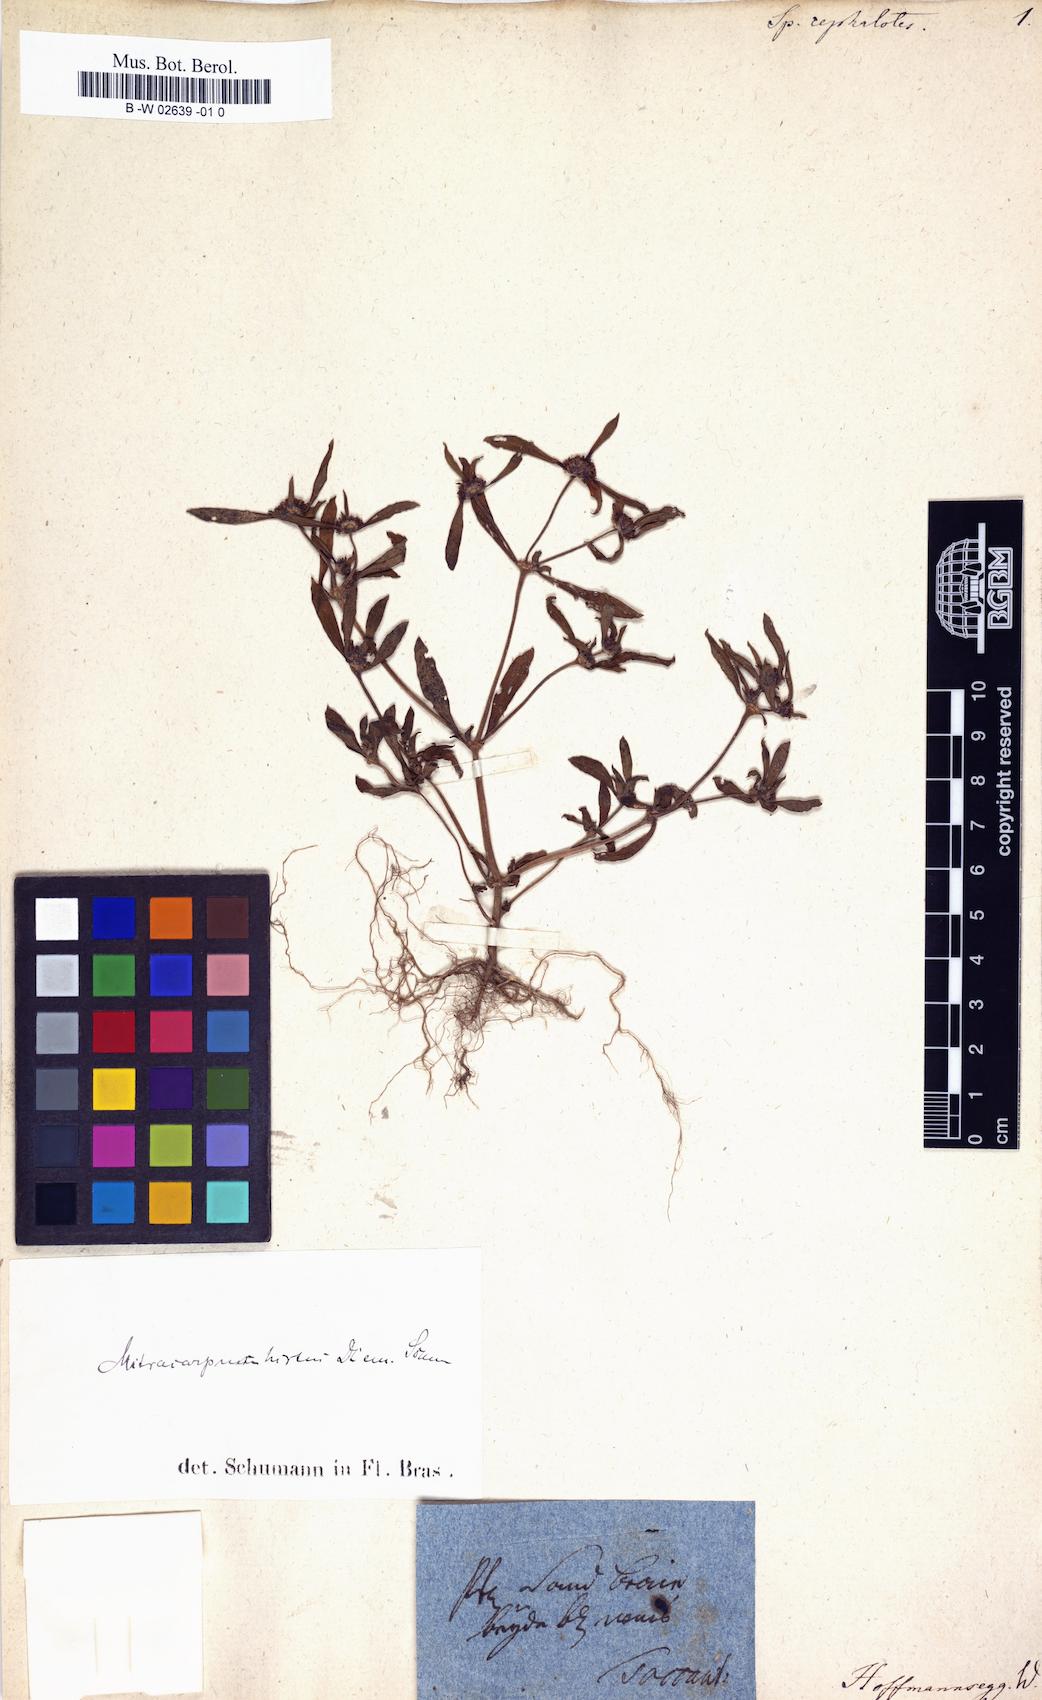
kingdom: Plantae
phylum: Tracheophyta
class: Magnoliopsida
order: Gentianales
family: Rubiaceae
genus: Mitracarpus
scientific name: Mitracarpus hirtus
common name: Tropical girdlepod
